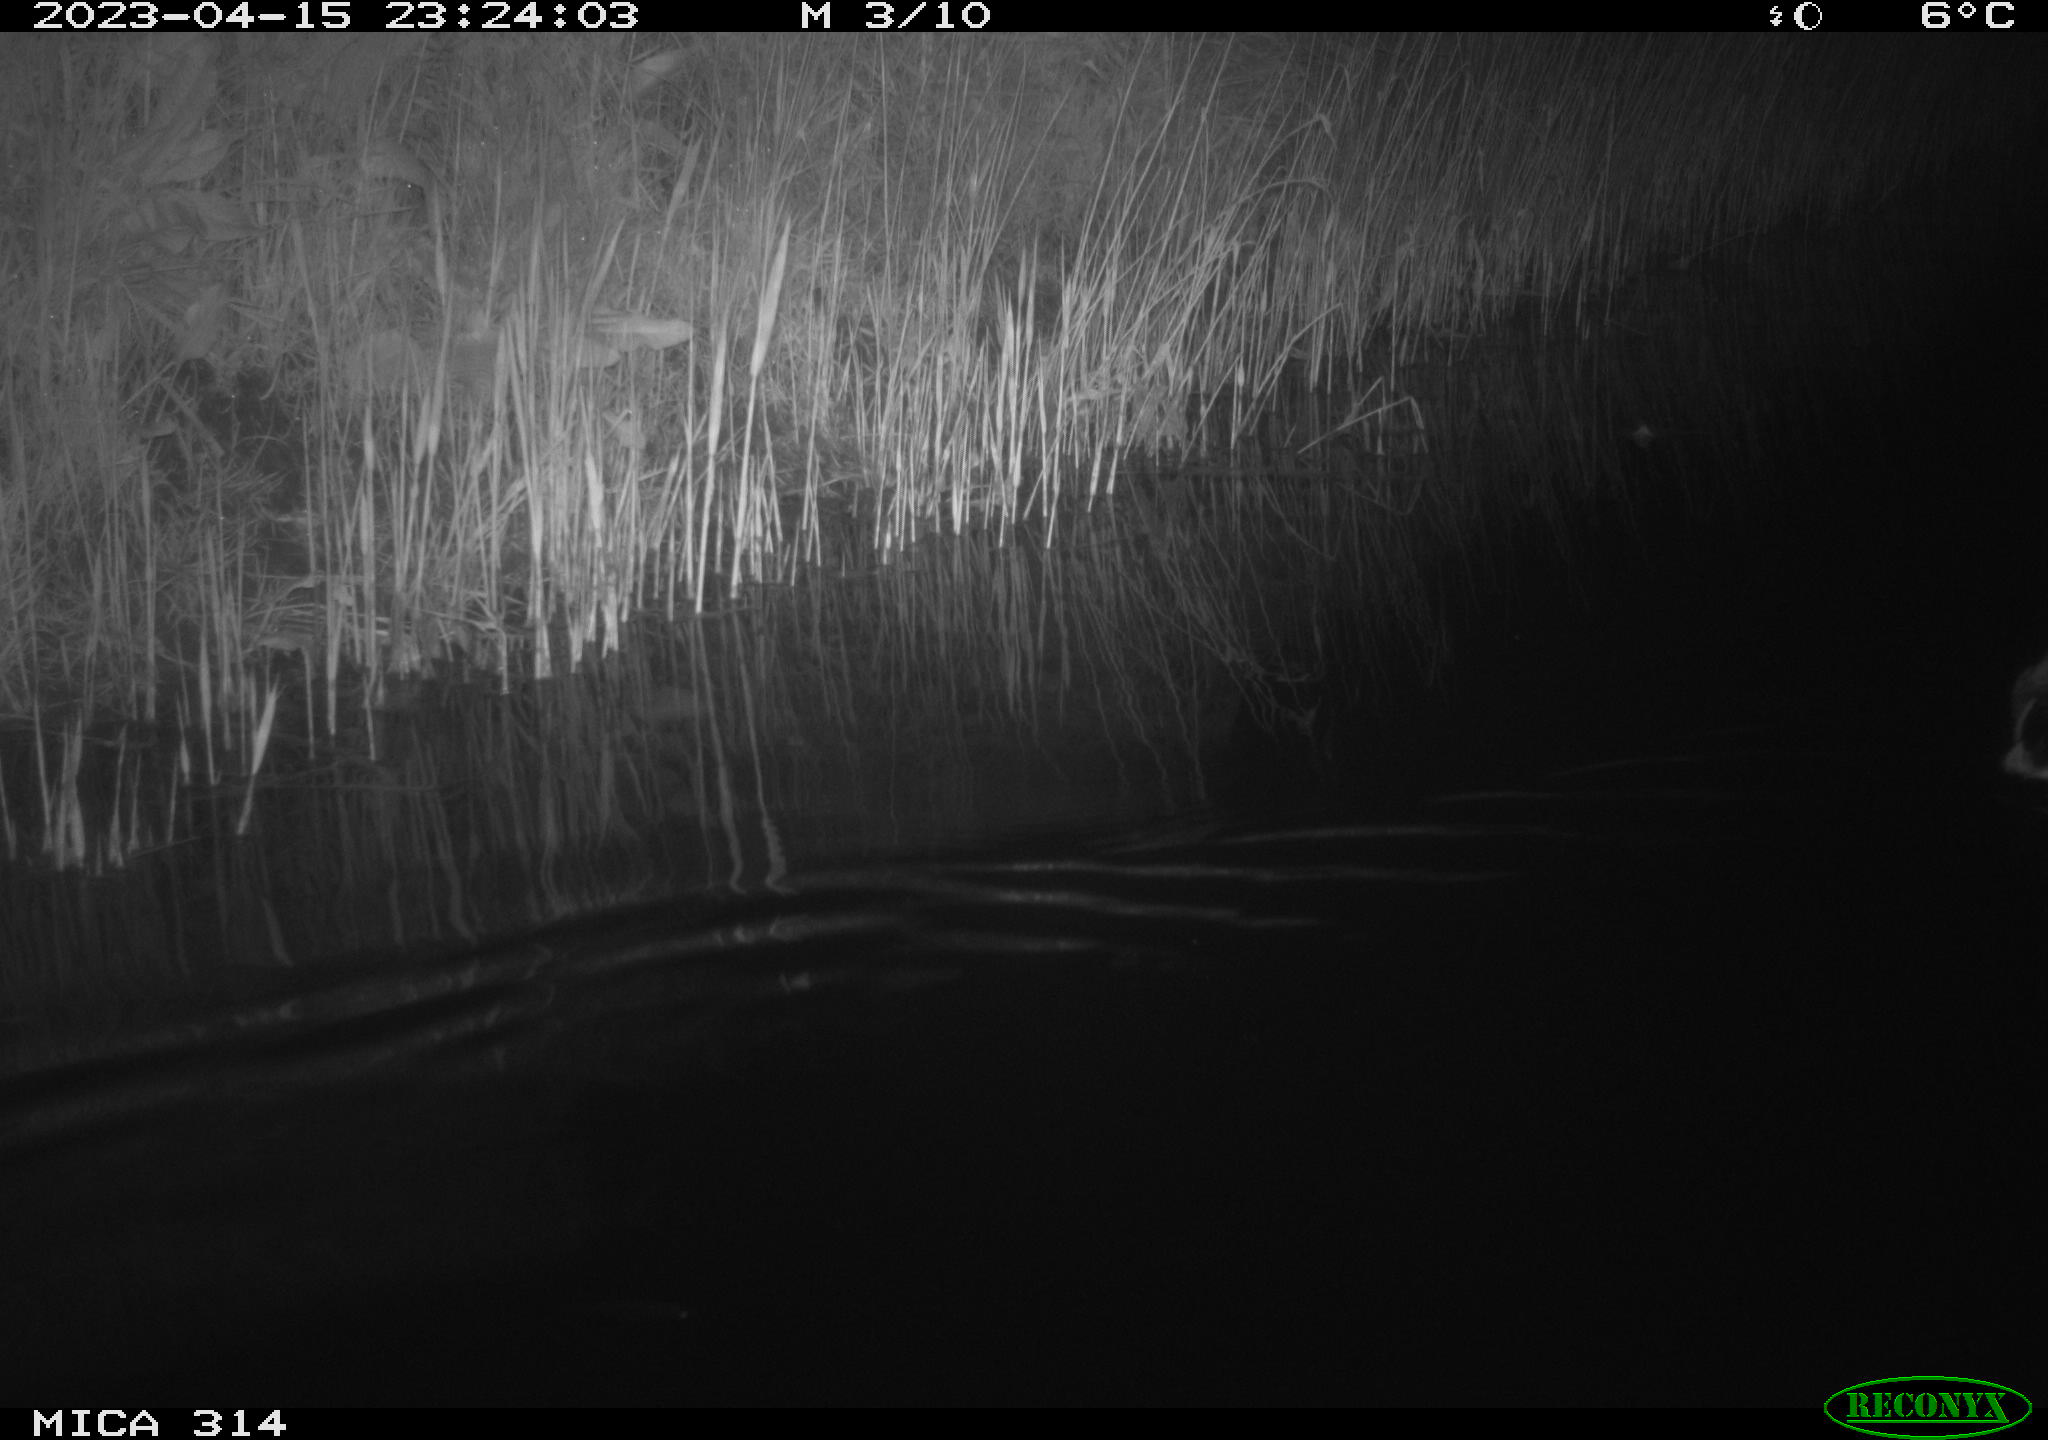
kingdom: Animalia
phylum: Chordata
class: Aves
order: Anseriformes
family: Anatidae
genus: Anas
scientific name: Anas
